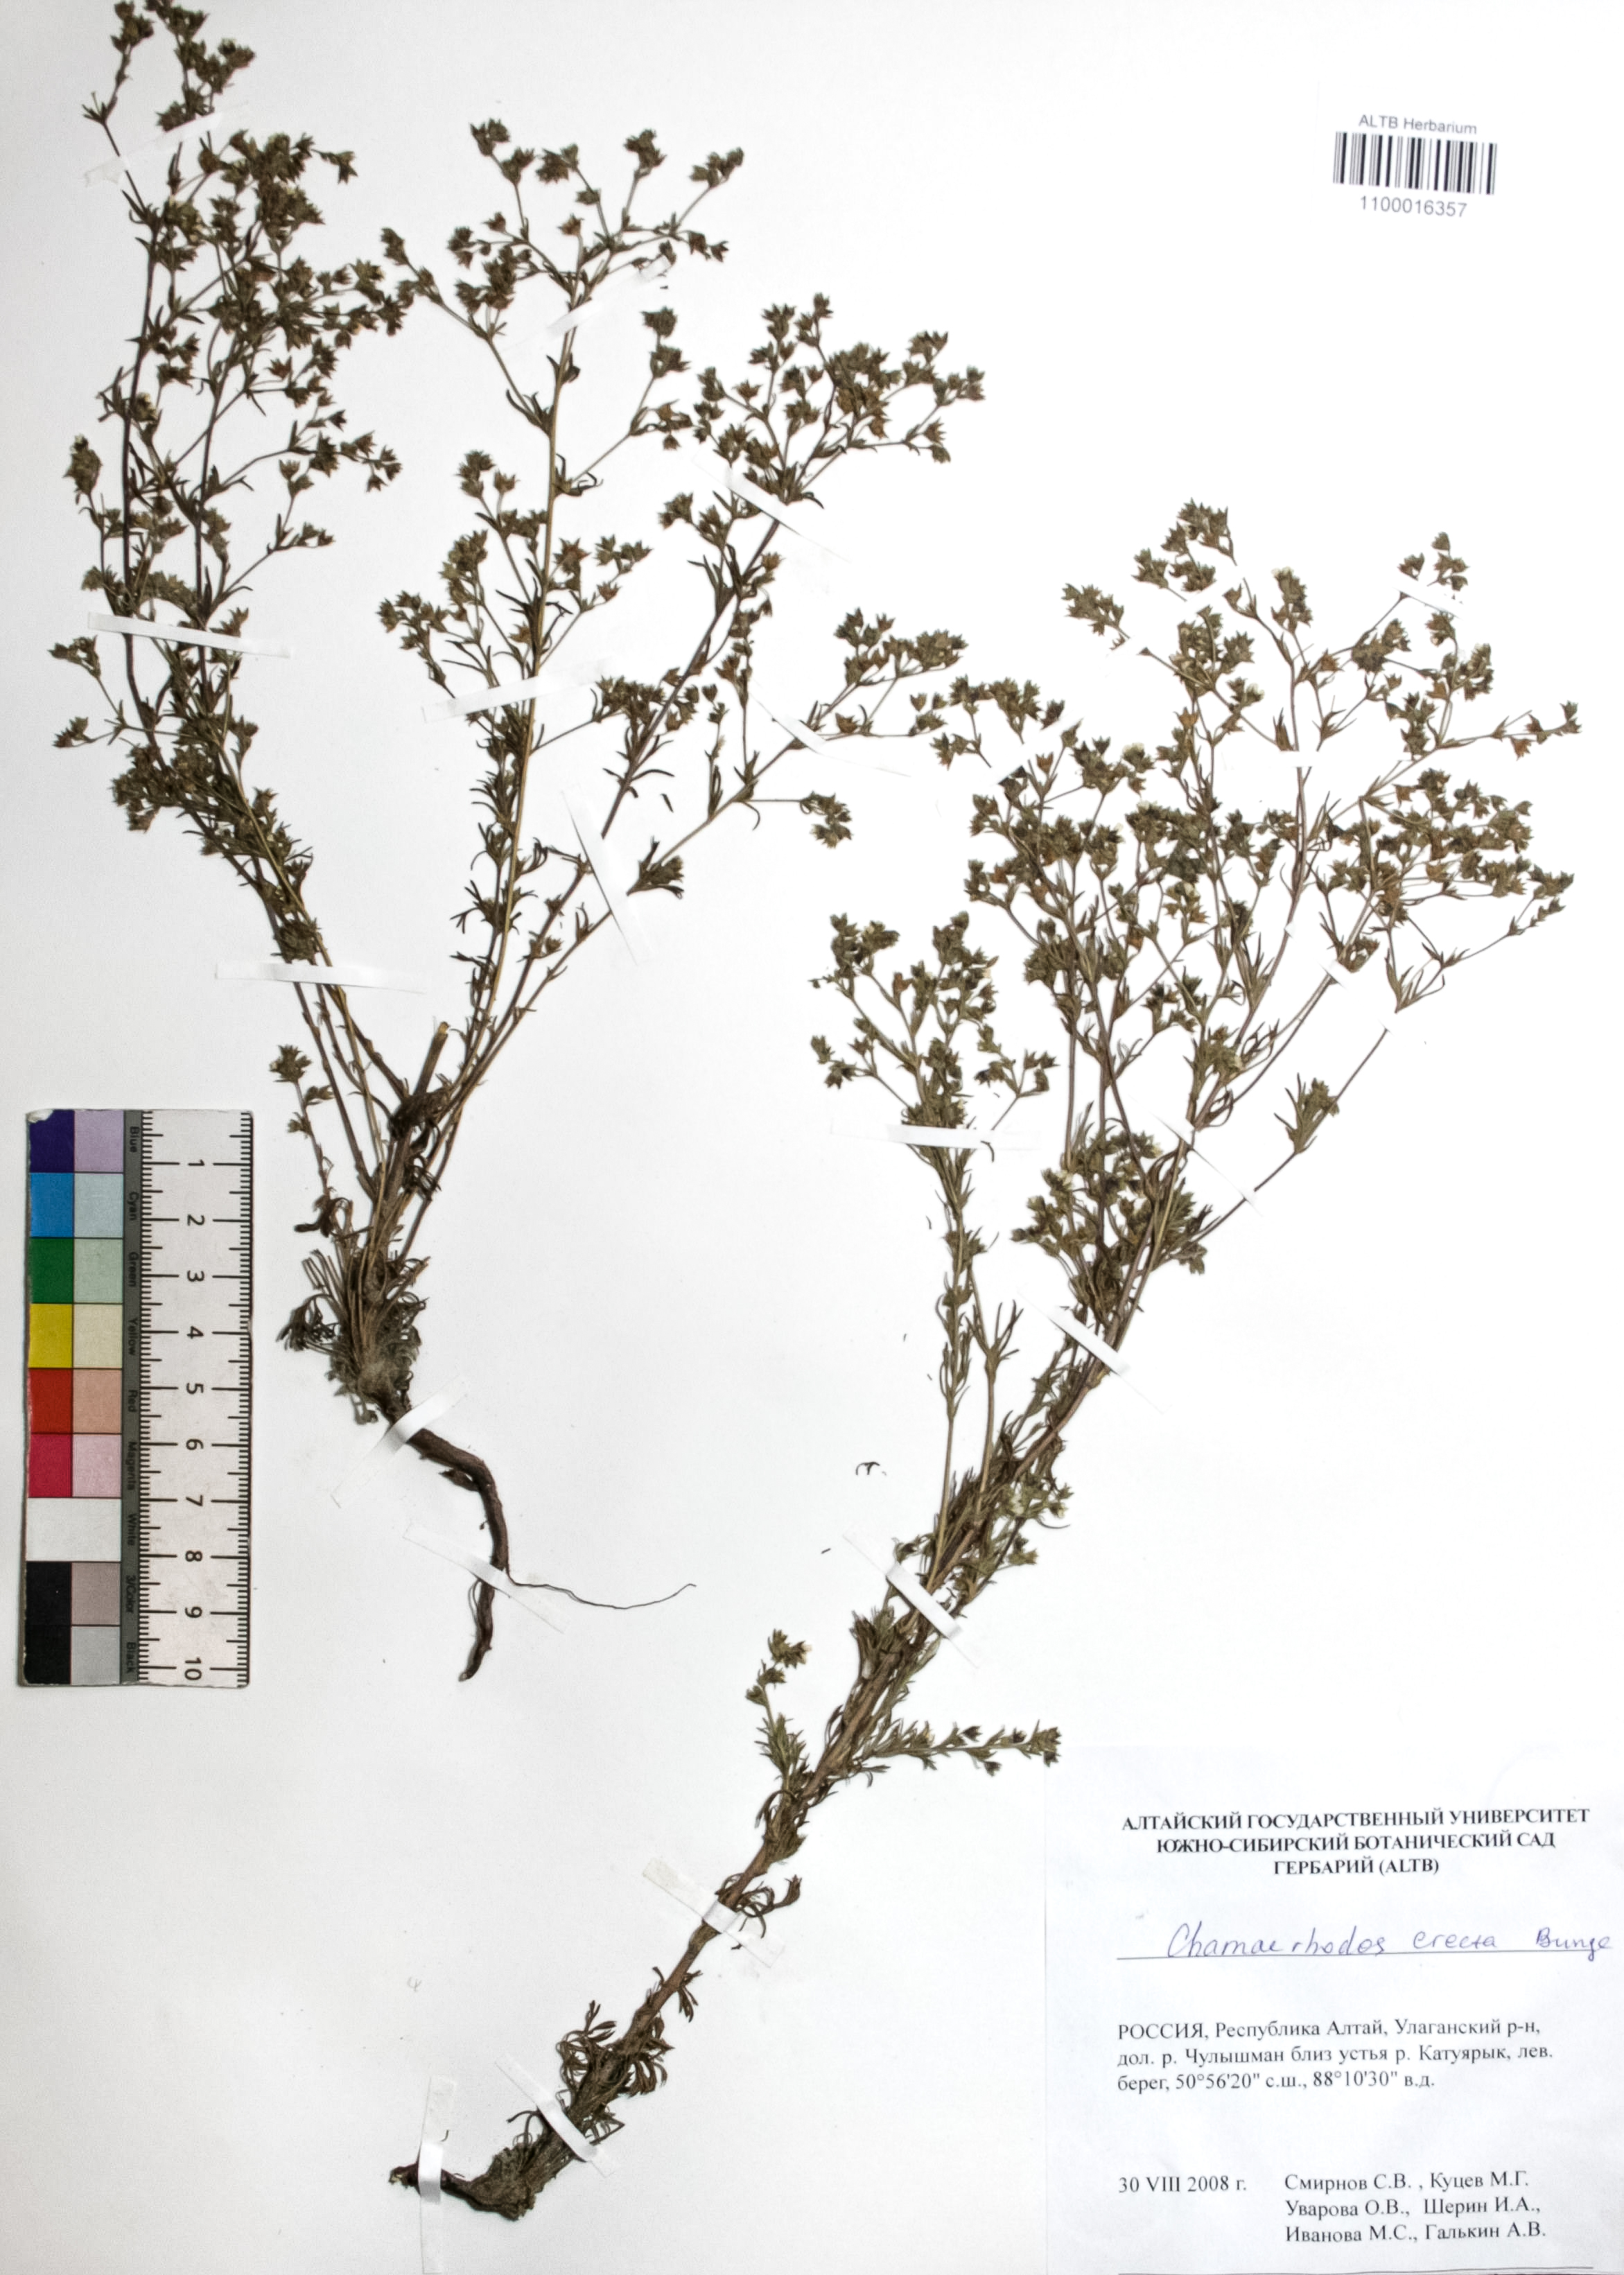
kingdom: Plantae
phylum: Tracheophyta
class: Magnoliopsida
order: Rosales
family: Rosaceae
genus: Chamaerhodos
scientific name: Chamaerhodos erecta
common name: American chamaerhodos
